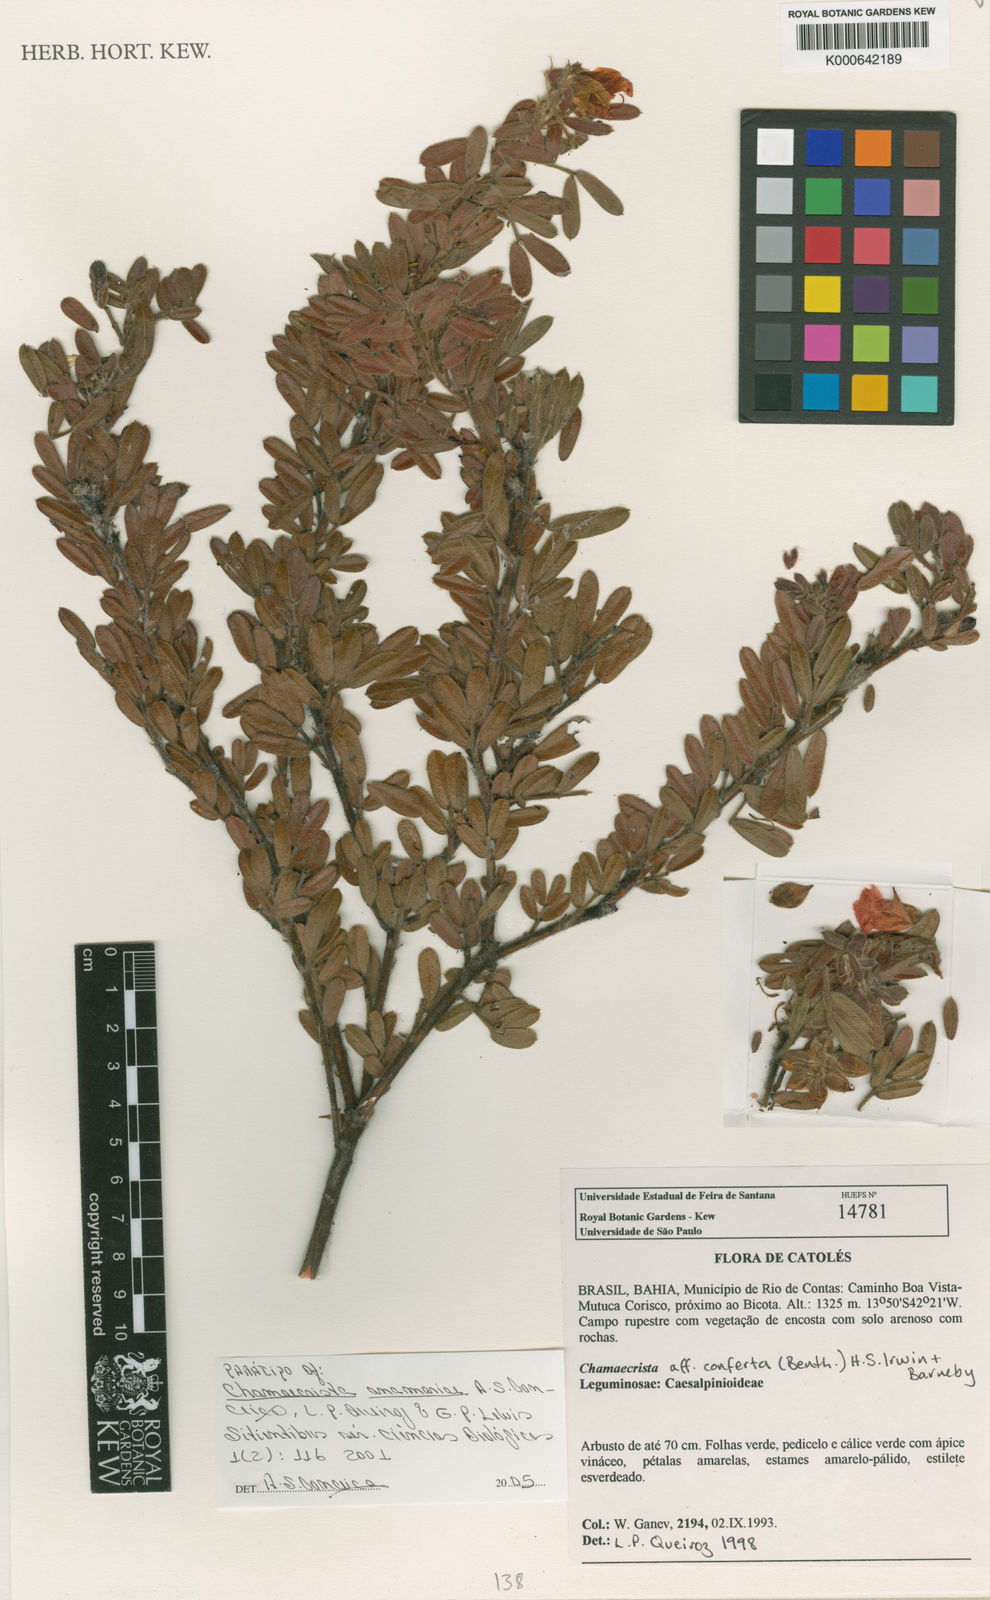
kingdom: Plantae
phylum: Tracheophyta
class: Magnoliopsida
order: Fabales
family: Fabaceae
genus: Chamaecrista
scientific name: Chamaecrista anamariae
